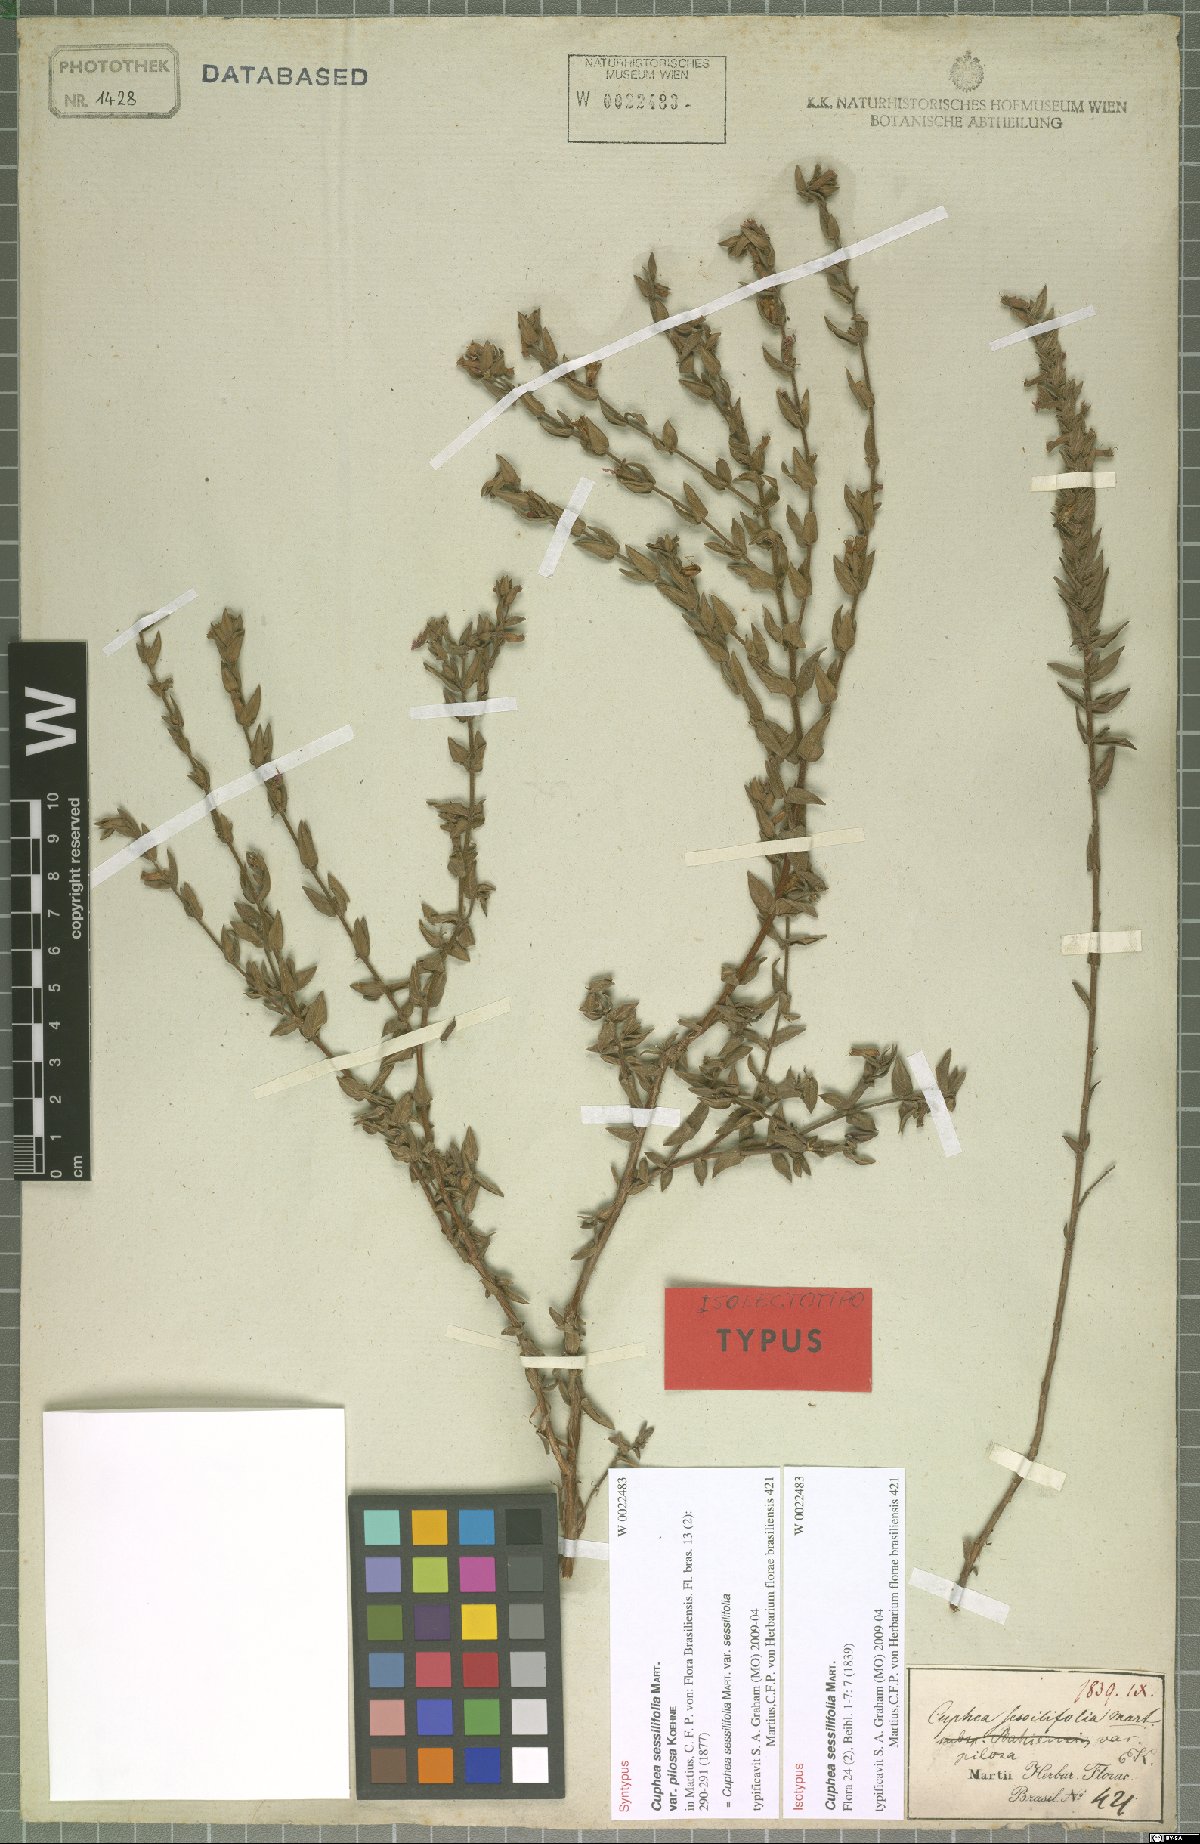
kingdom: Plantae
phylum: Tracheophyta
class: Magnoliopsida
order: Myrtales
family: Lythraceae
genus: Cuphea
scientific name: Cuphea antisyphilitica
